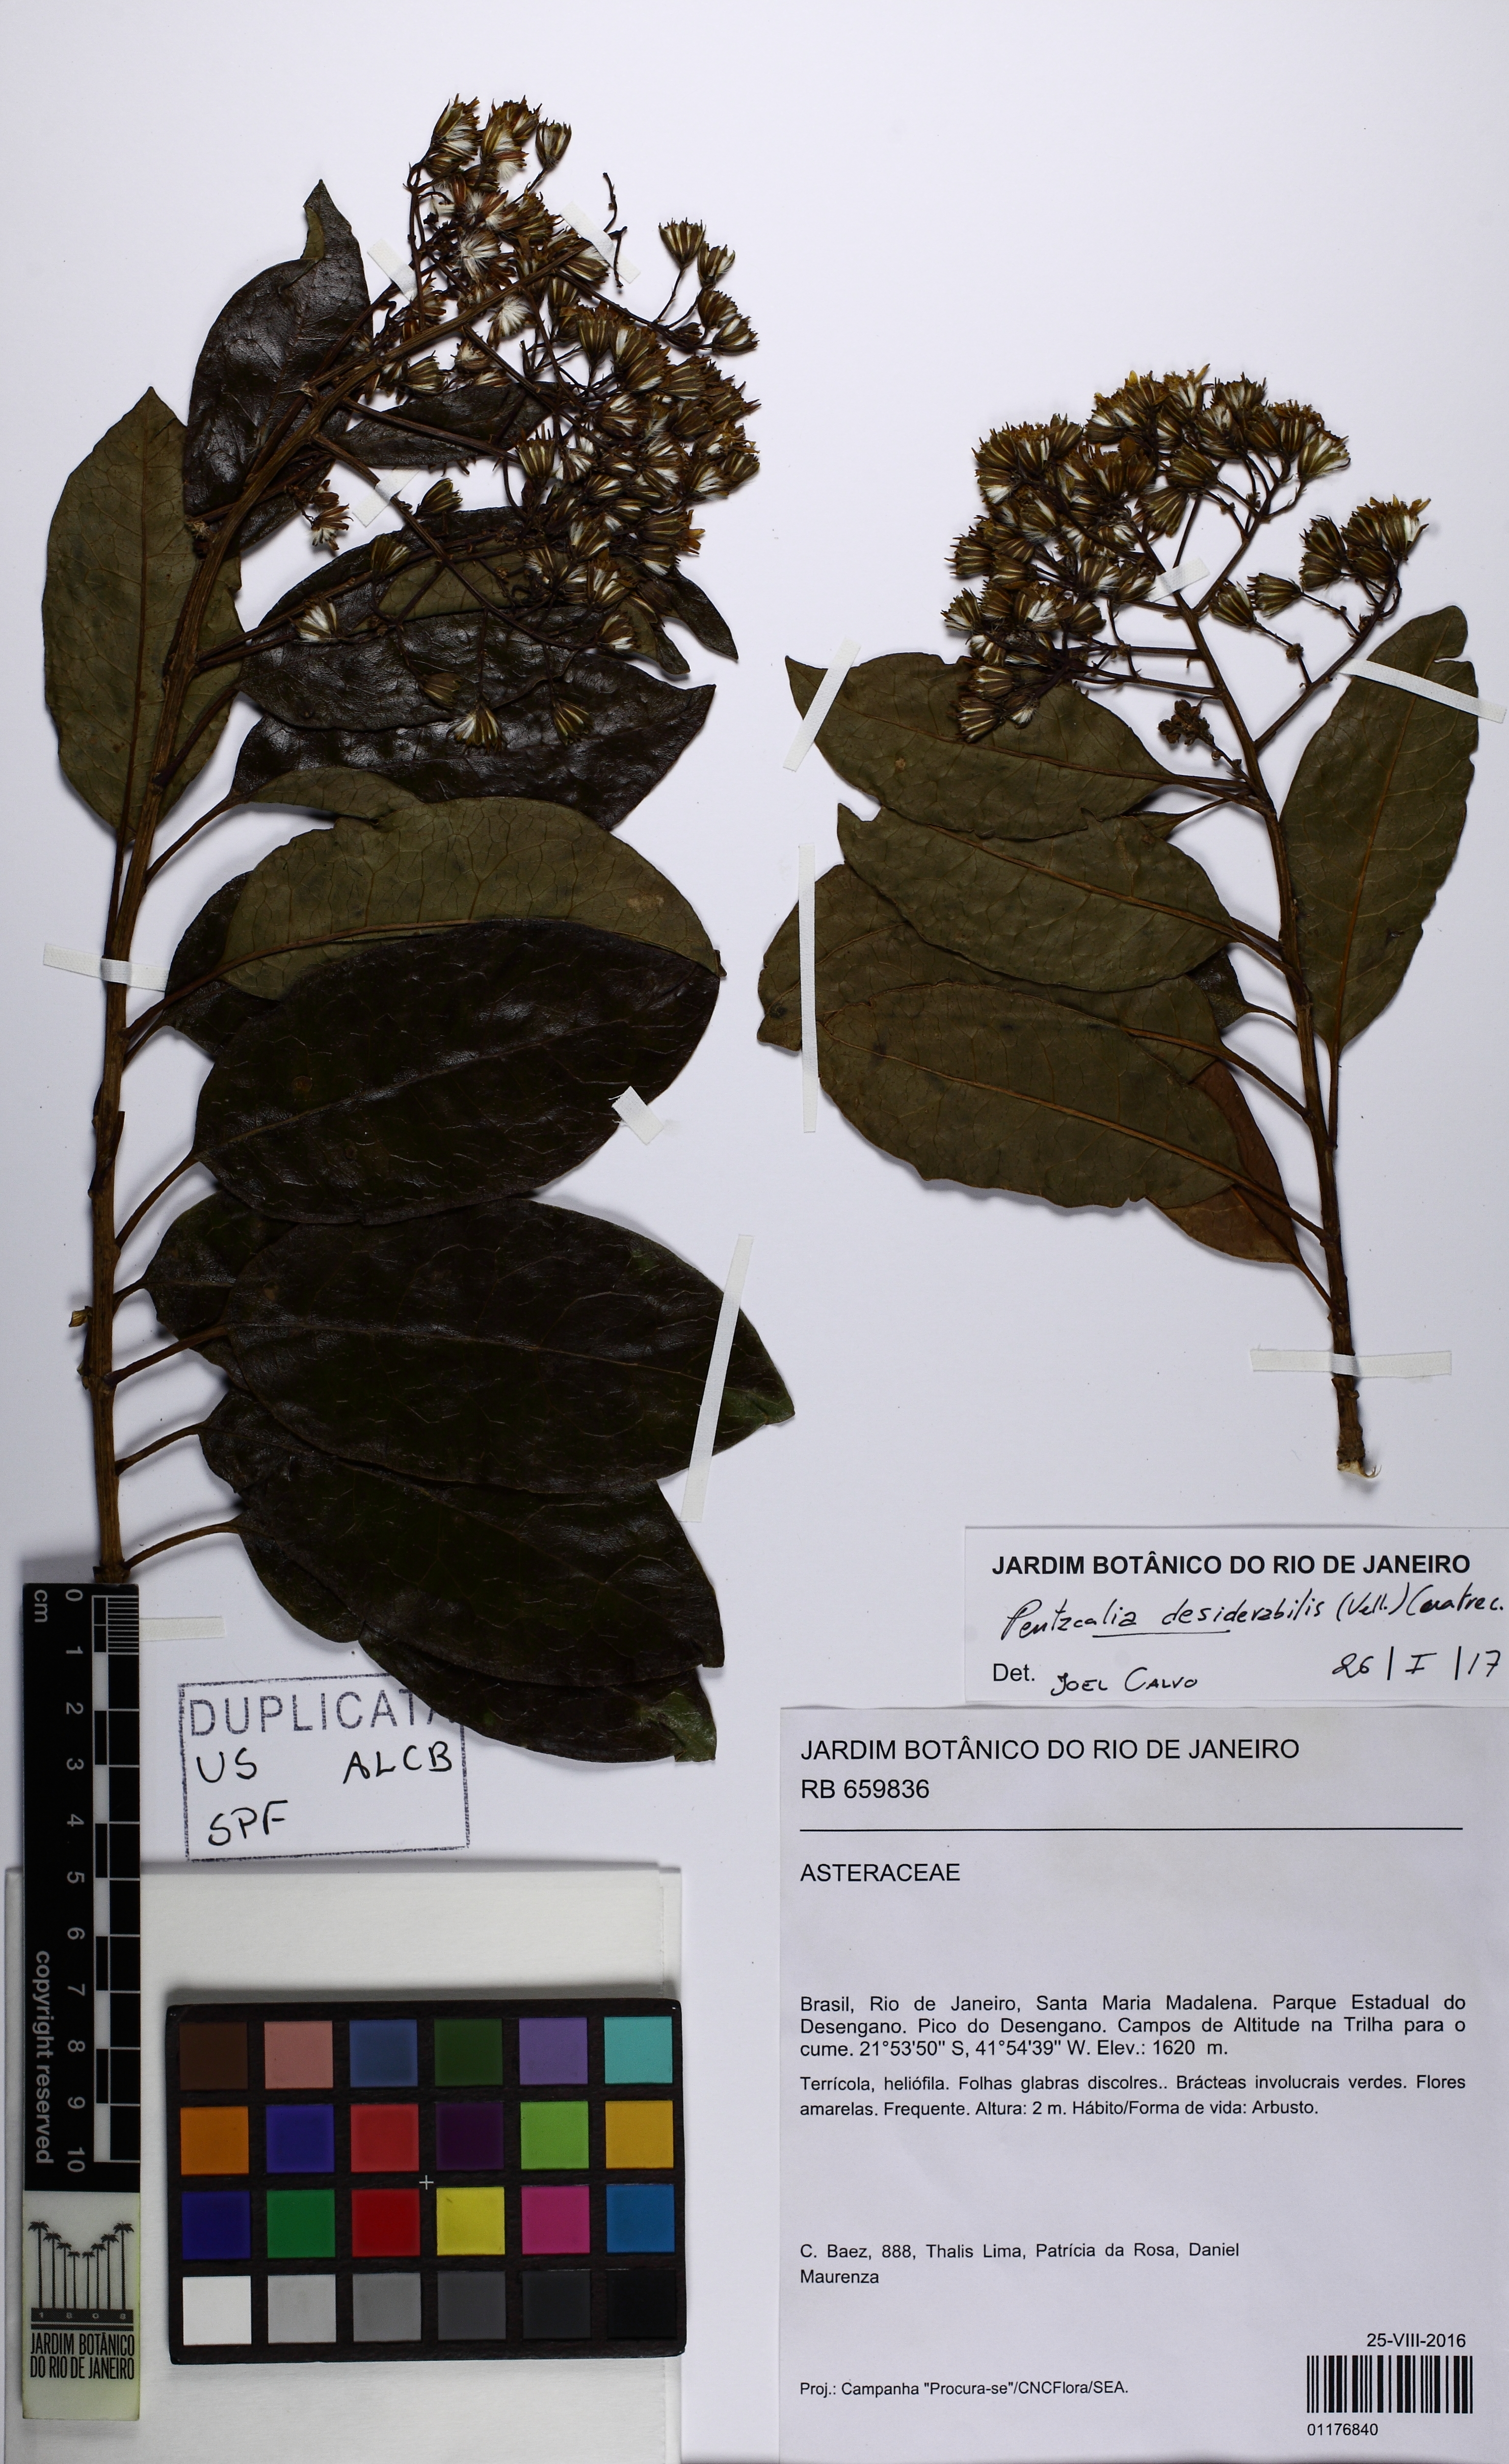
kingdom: Plantae
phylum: Tracheophyta
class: Magnoliopsida
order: Asterales
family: Asteraceae
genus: Pentacalia
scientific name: Pentacalia desiderabilis
